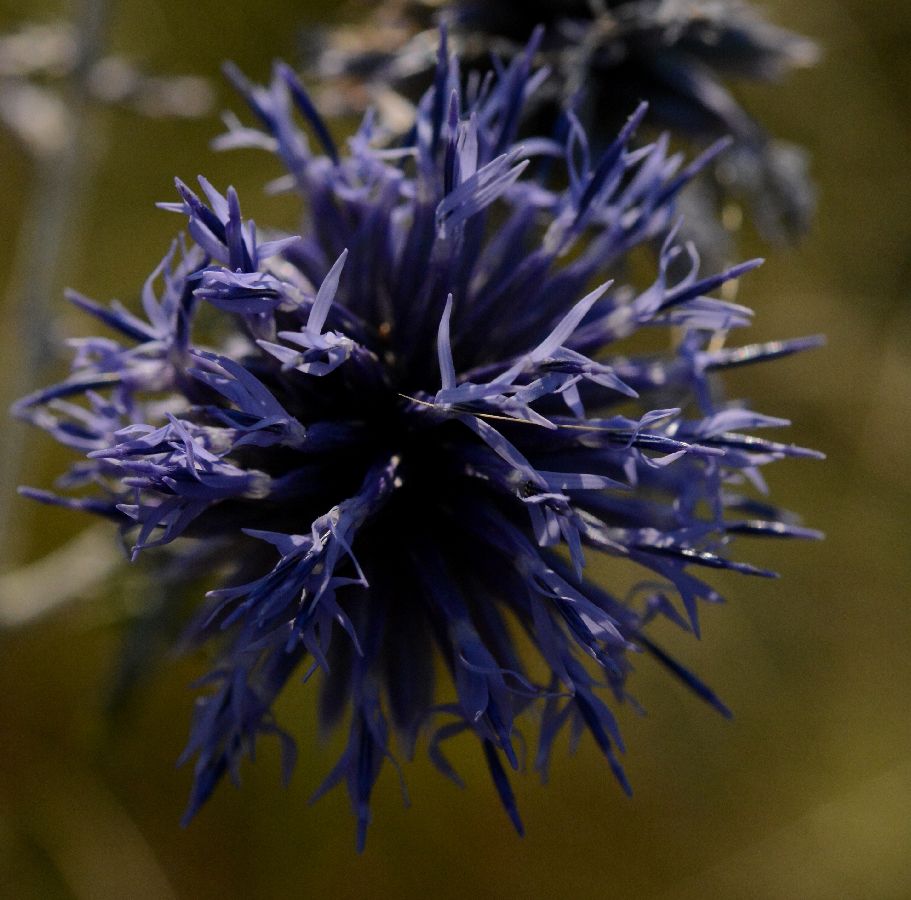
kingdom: Plantae
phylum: Tracheophyta
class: Magnoliopsida
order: Asterales
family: Asteraceae
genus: Erigeron
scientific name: Erigeron
